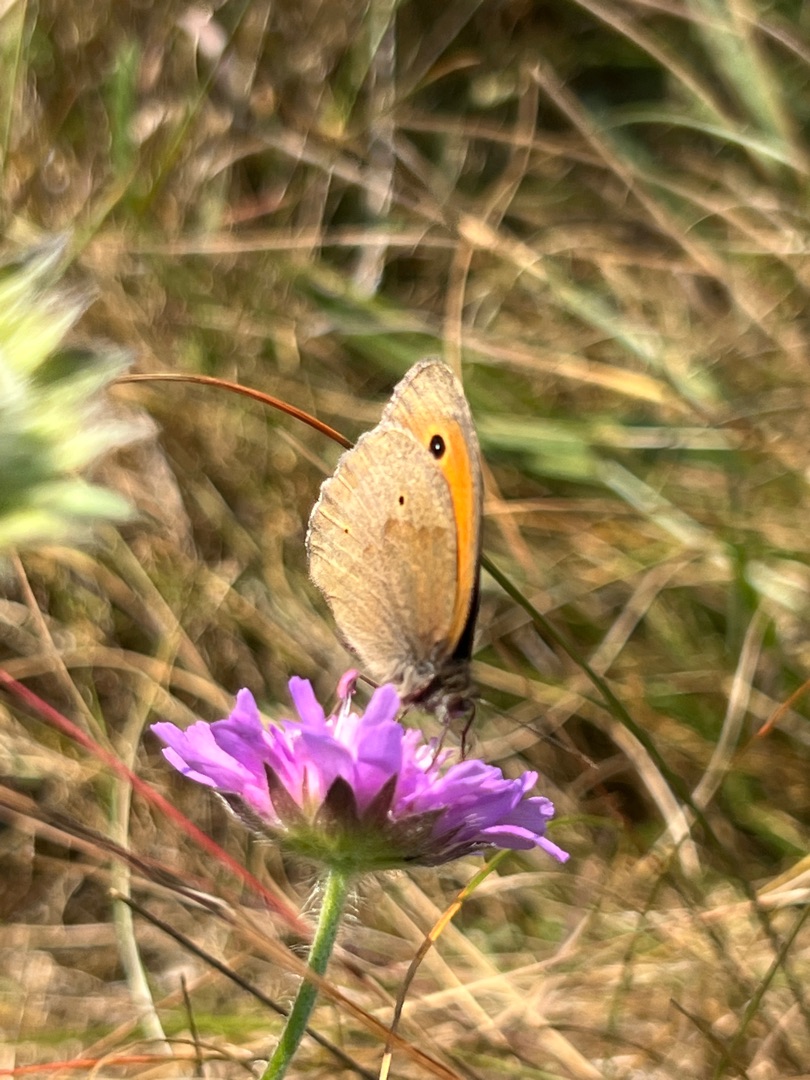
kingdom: Animalia
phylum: Arthropoda
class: Insecta
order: Lepidoptera
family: Nymphalidae
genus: Maniola
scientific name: Maniola jurtina
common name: Græsrandøje
